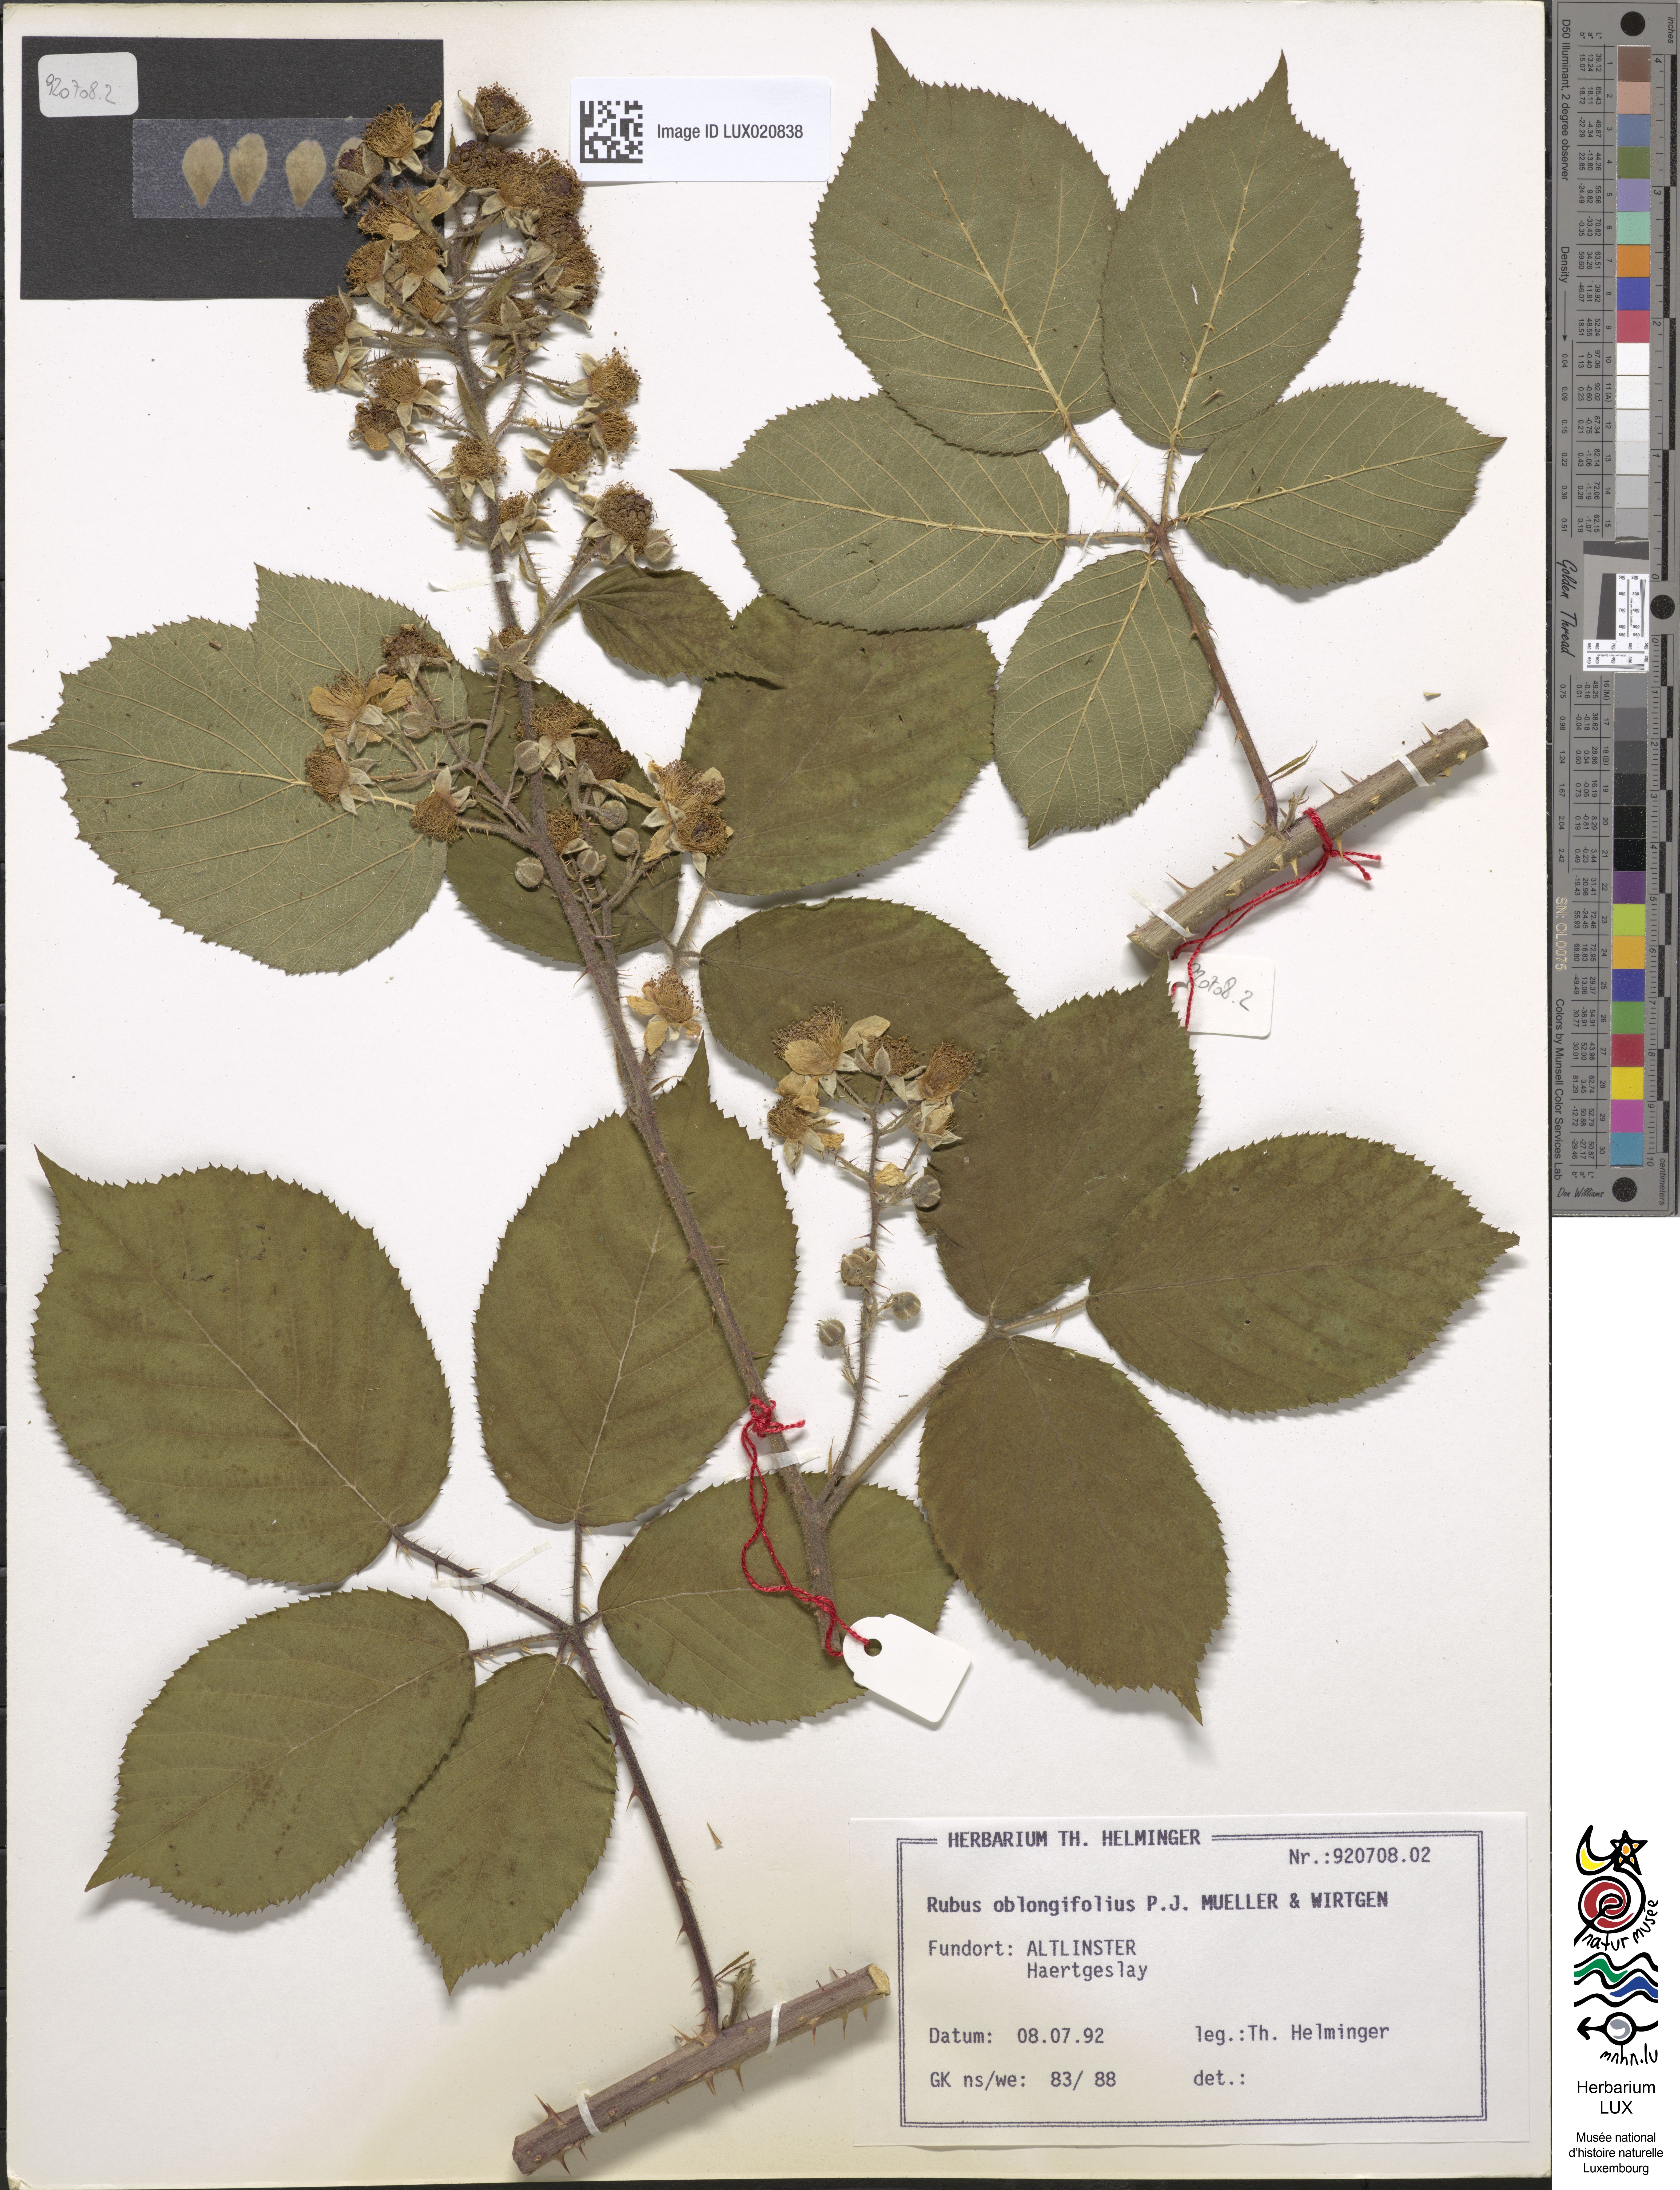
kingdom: Plantae
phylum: Tracheophyta
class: Magnoliopsida
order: Rosales
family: Rosaceae
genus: Rubus
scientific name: Rubus oblongifolius
